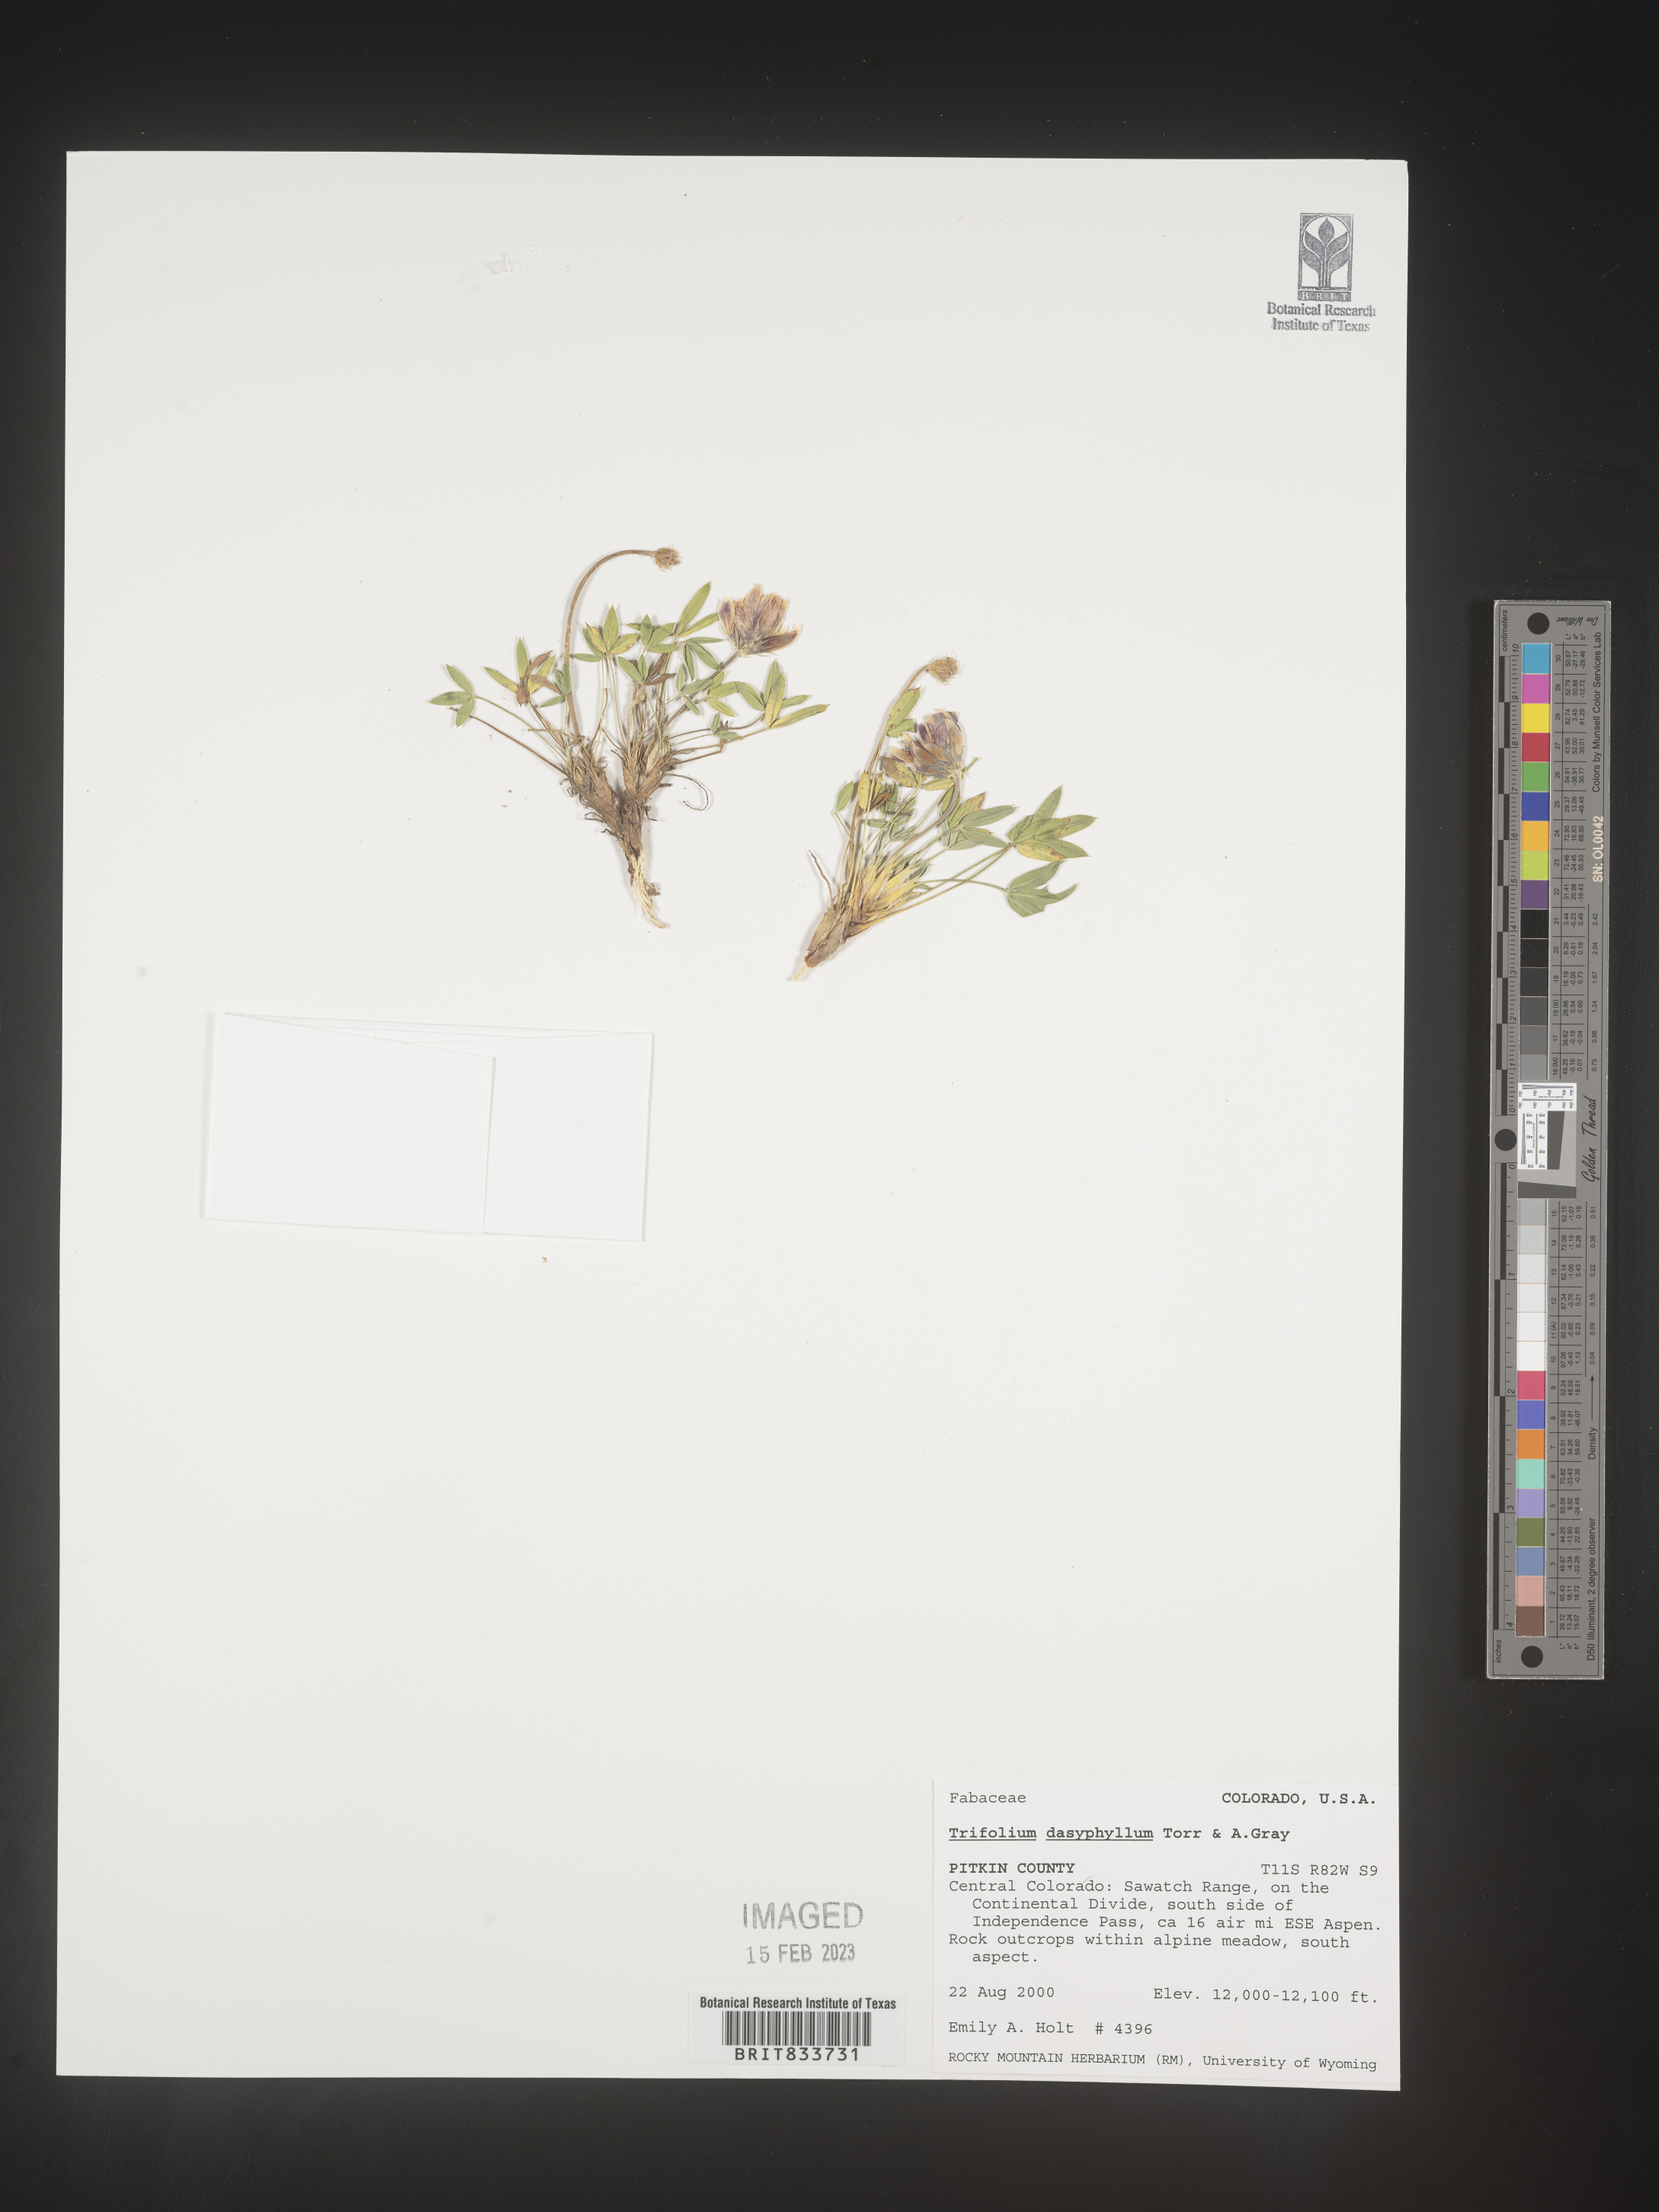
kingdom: Plantae
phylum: Tracheophyta
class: Magnoliopsida
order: Fabales
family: Fabaceae
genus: Trifolium
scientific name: Trifolium
